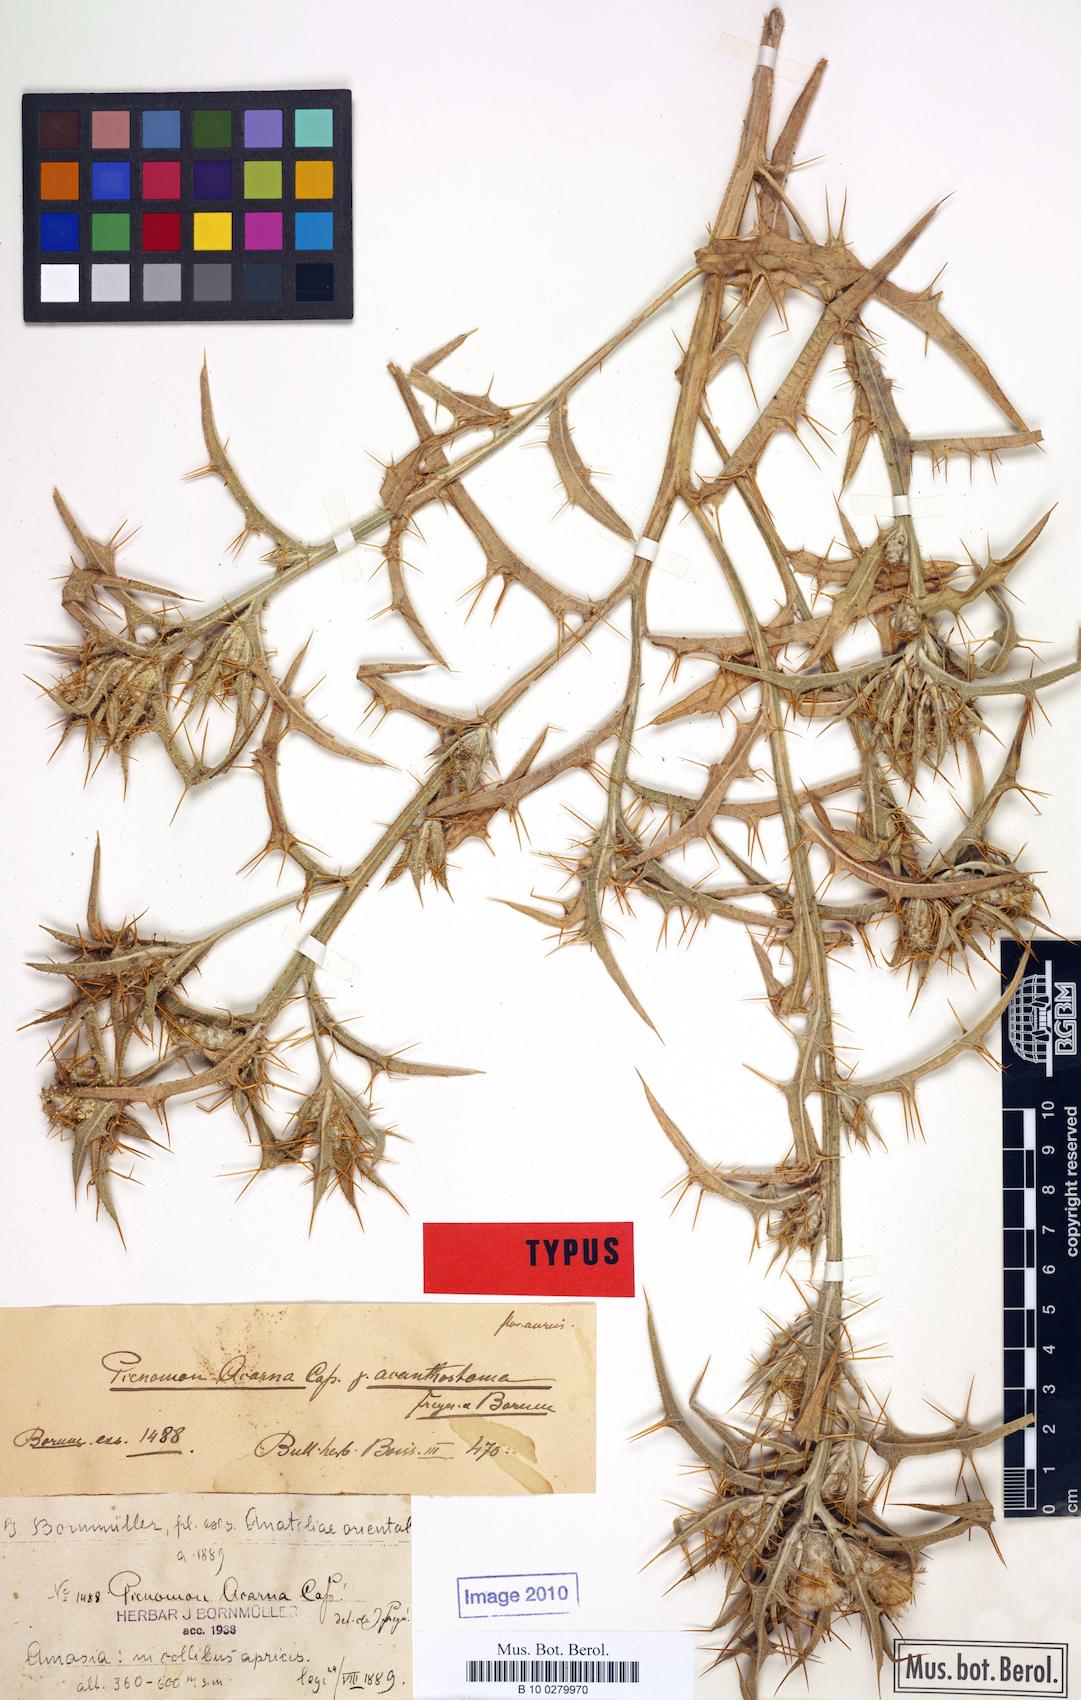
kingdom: Plantae
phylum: Tracheophyta
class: Magnoliopsida
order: Asterales
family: Asteraceae
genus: Picnomon
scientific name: Picnomon acarna
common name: Soldier thistle
